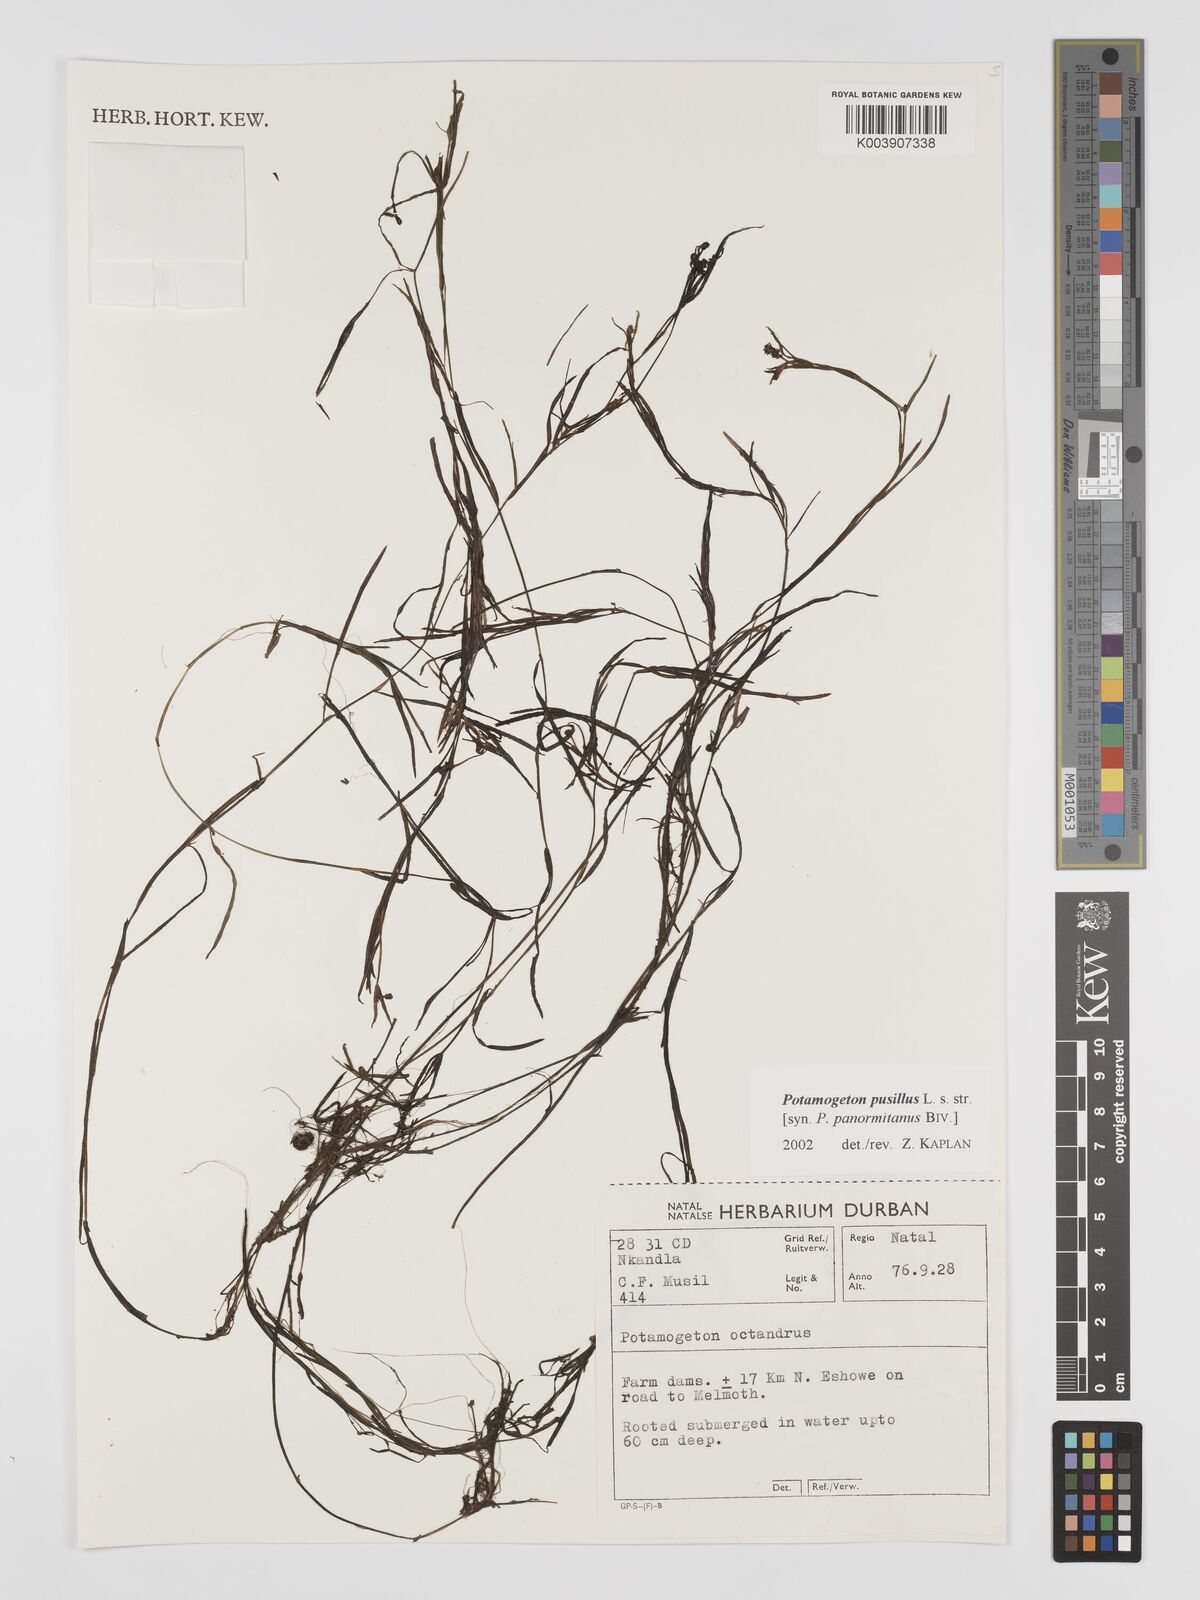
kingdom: Plantae
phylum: Tracheophyta
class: Liliopsida
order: Alismatales
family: Potamogetonaceae
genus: Potamogeton
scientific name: Potamogeton pusillus
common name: Lesser pondweed
